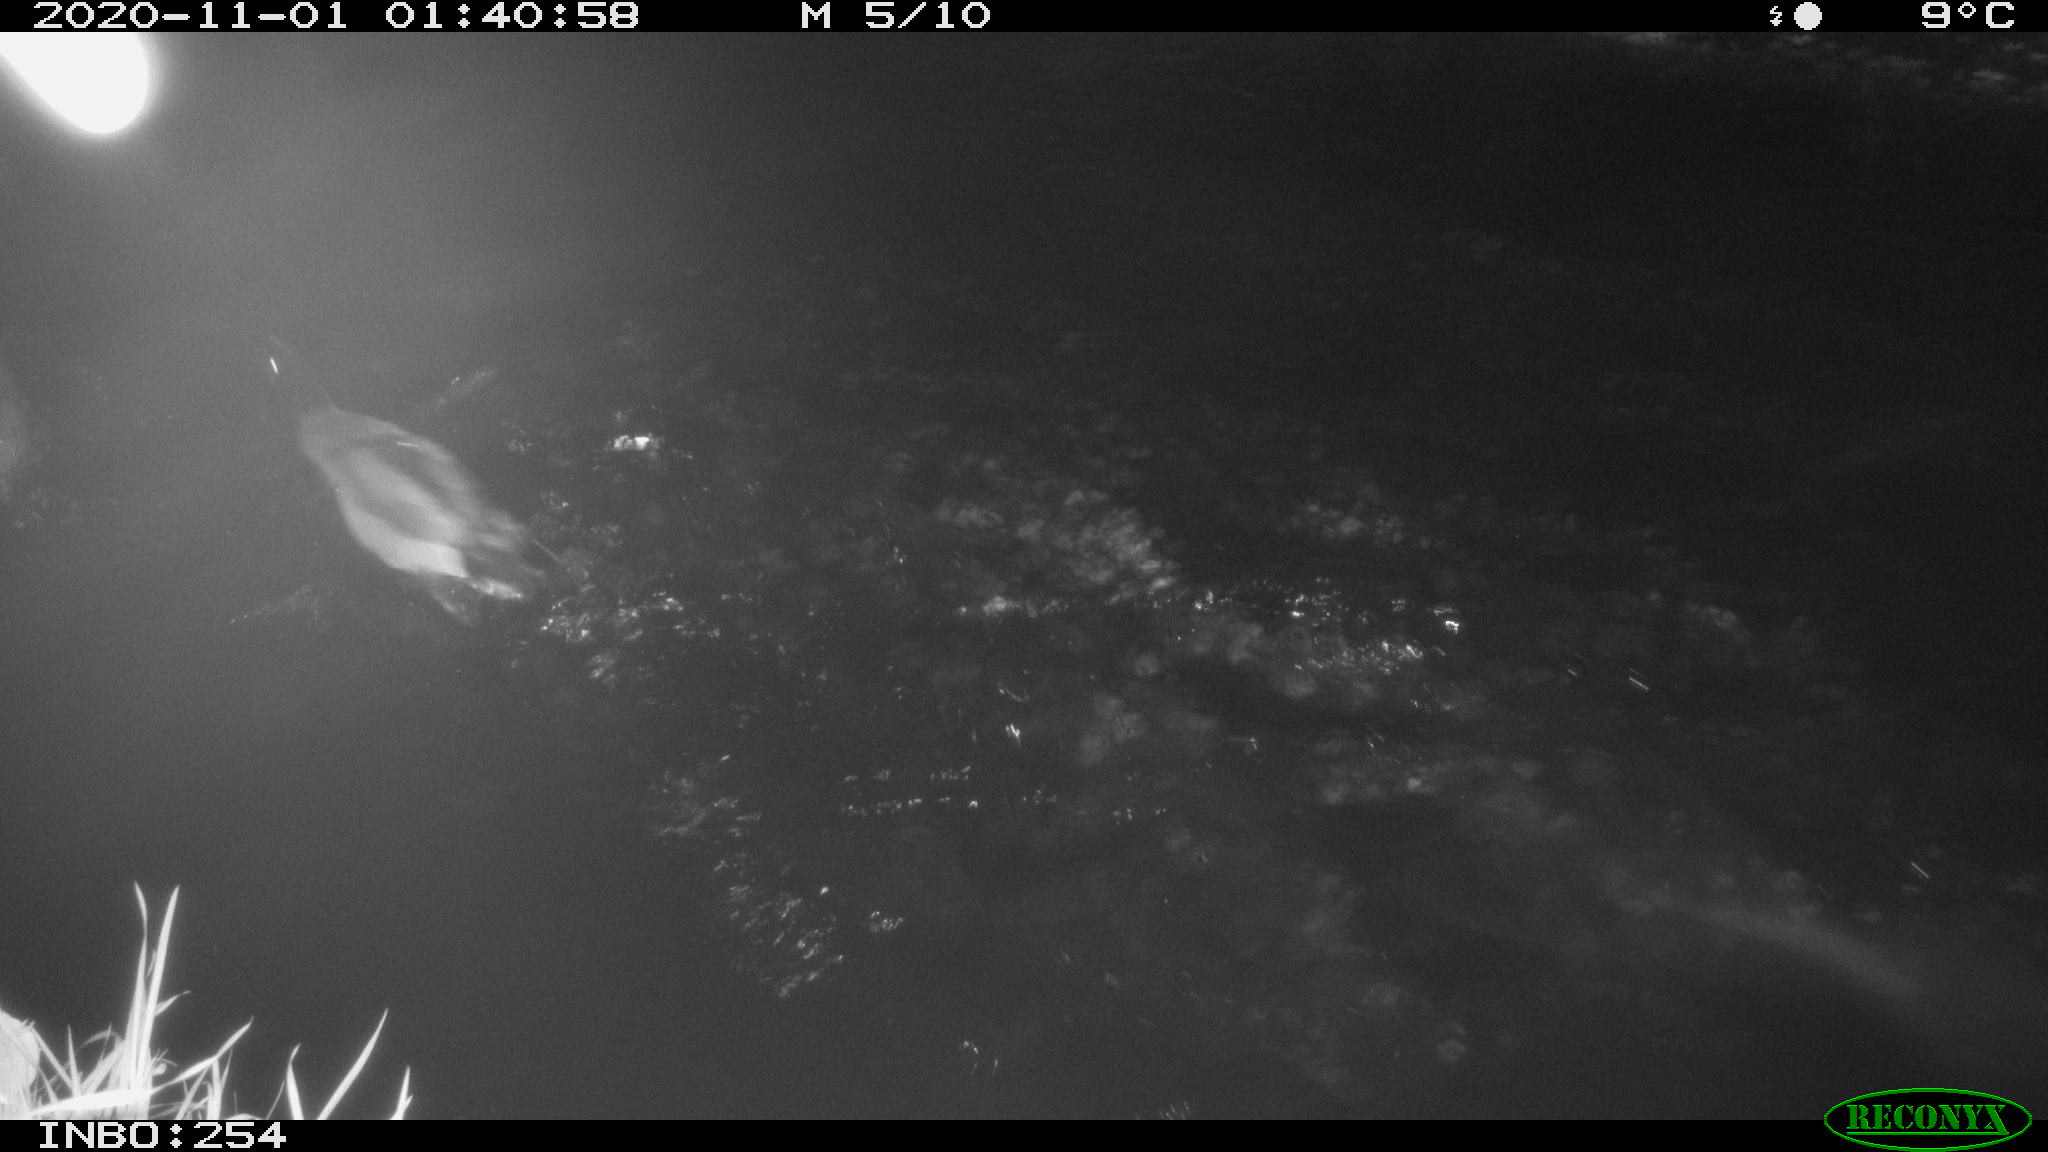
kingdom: Animalia
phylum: Chordata
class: Aves
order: Anseriformes
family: Anatidae
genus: Anas
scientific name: Anas platyrhynchos
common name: Mallard
